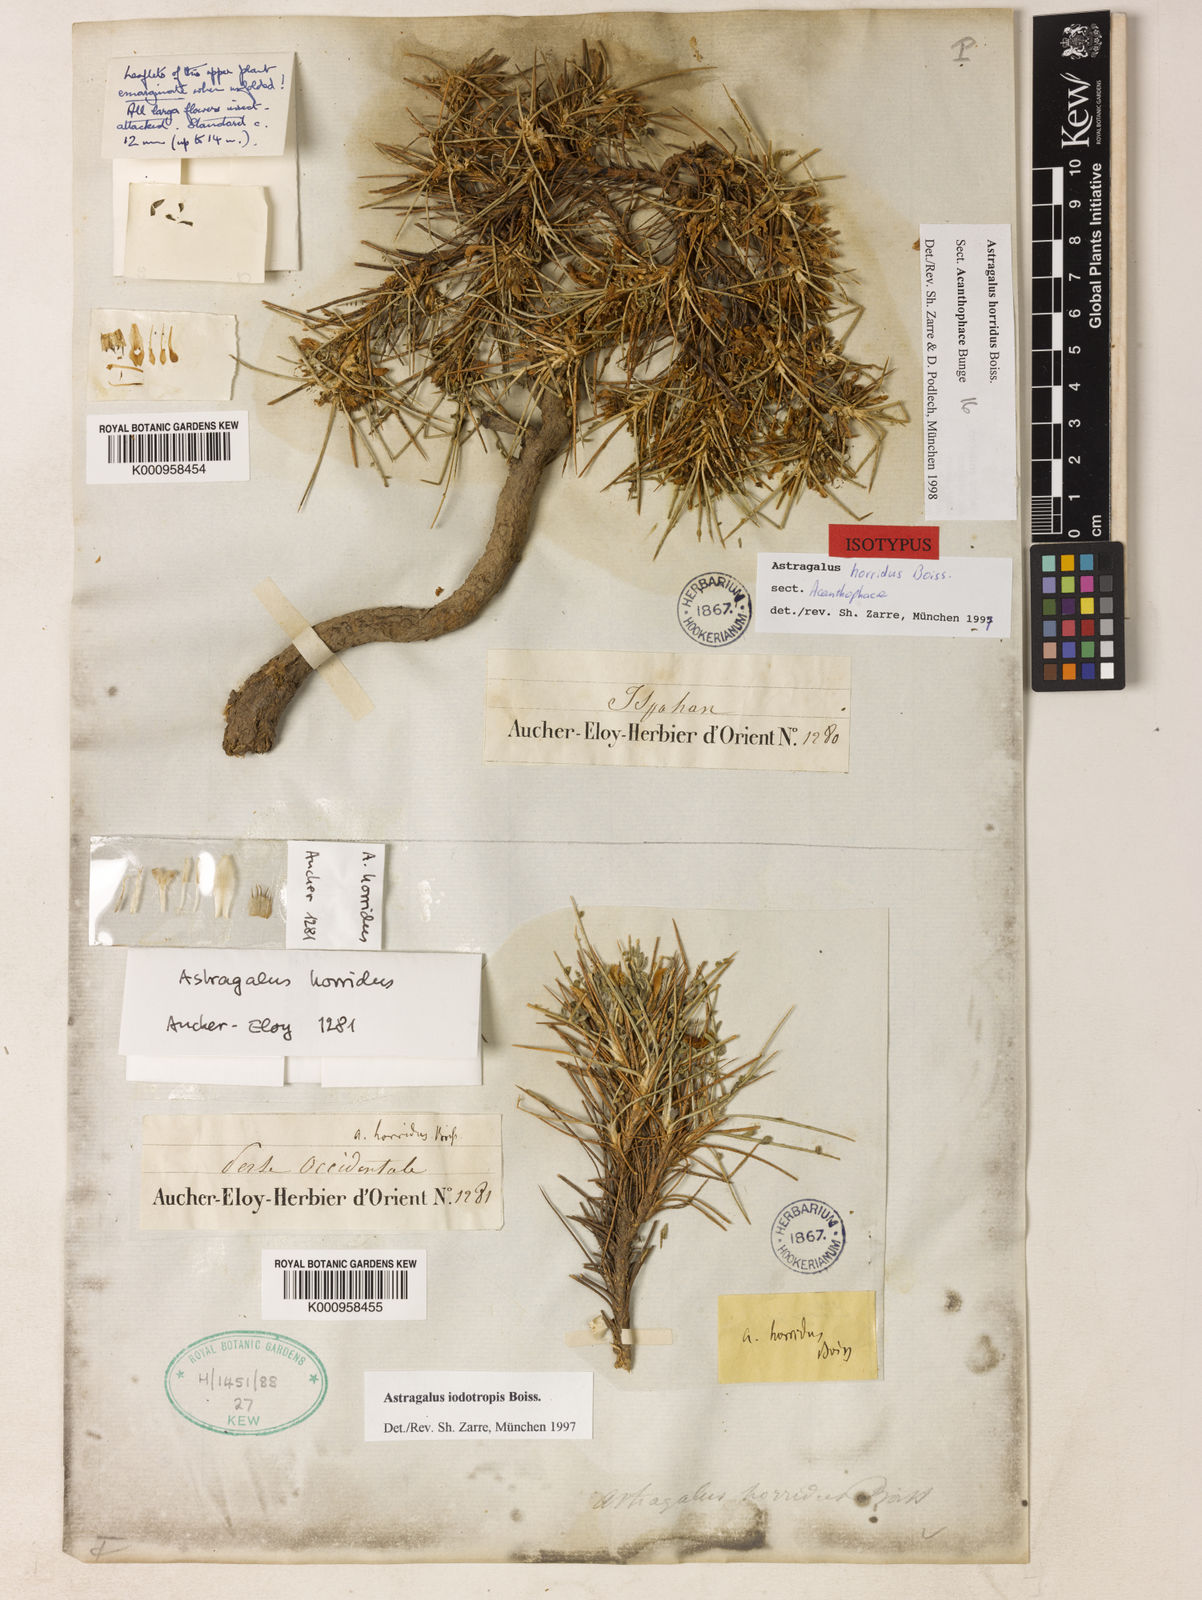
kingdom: Plantae
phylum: Tracheophyta
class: Magnoliopsida
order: Fabales
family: Fabaceae
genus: Astragalus
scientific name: Astragalus horridus
